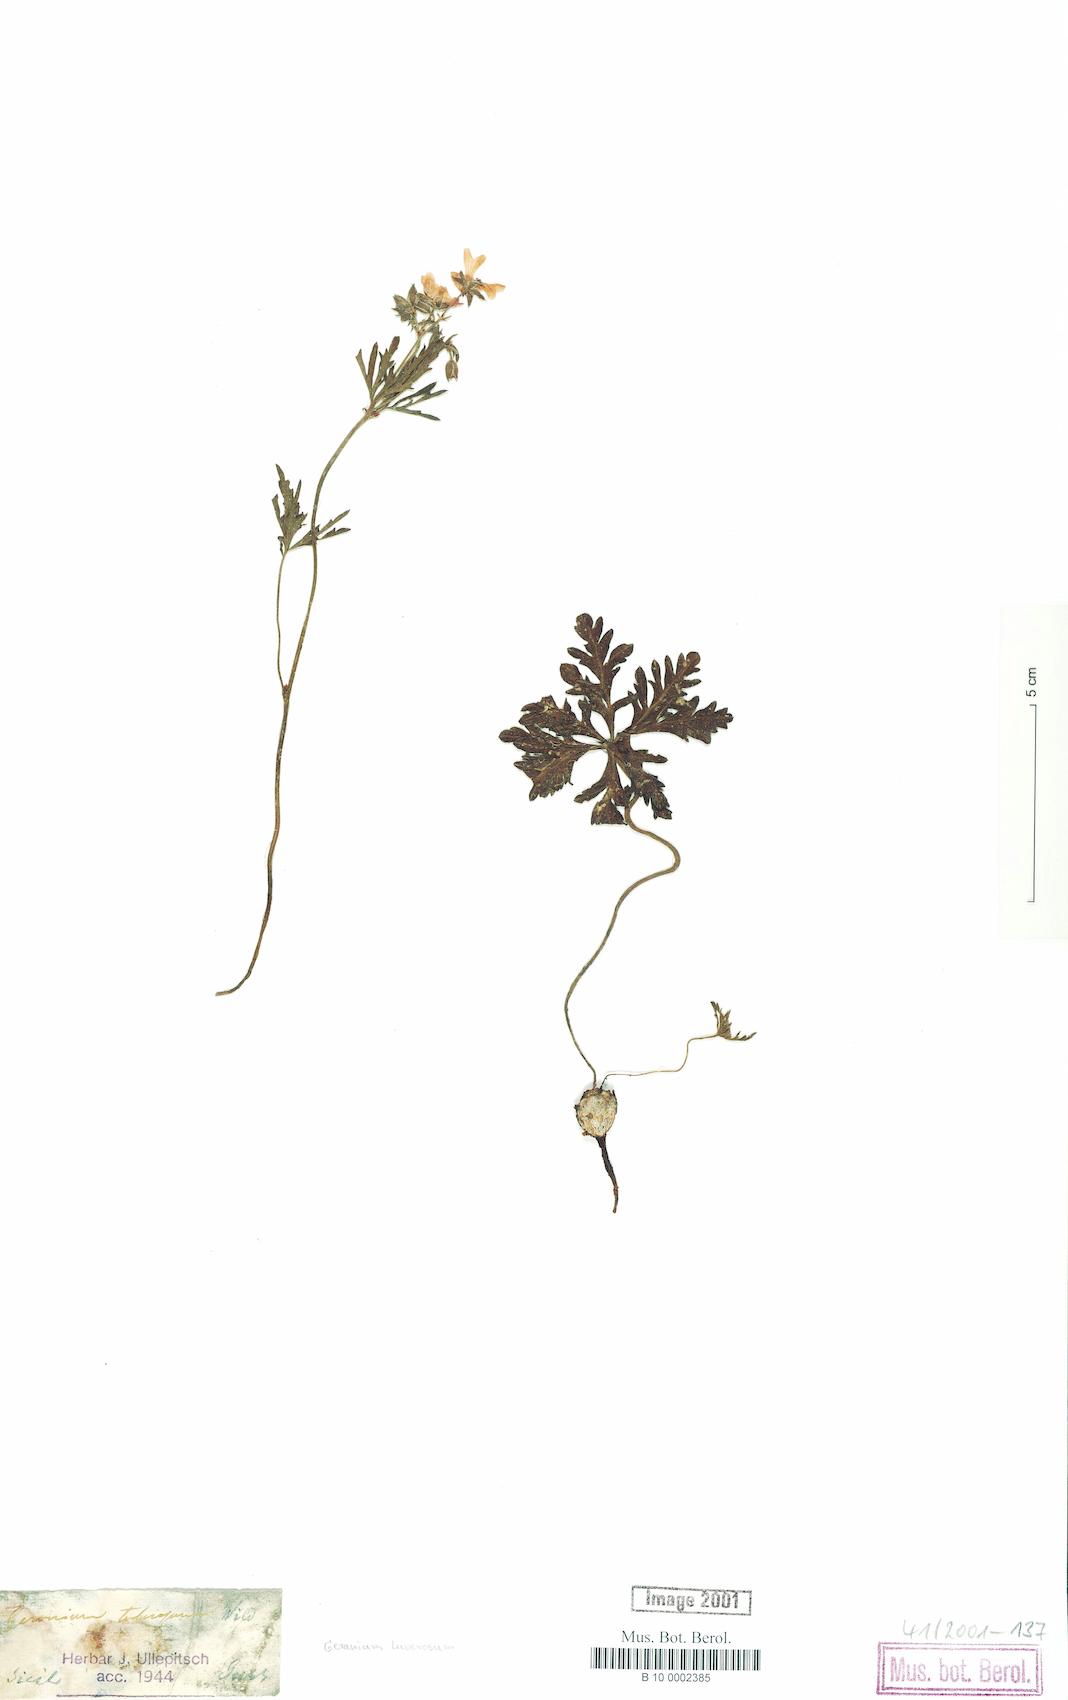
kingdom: Plantae
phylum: Tracheophyta
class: Magnoliopsida
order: Geraniales
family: Geraniaceae
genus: Geranium
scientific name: Geranium tuberosum
